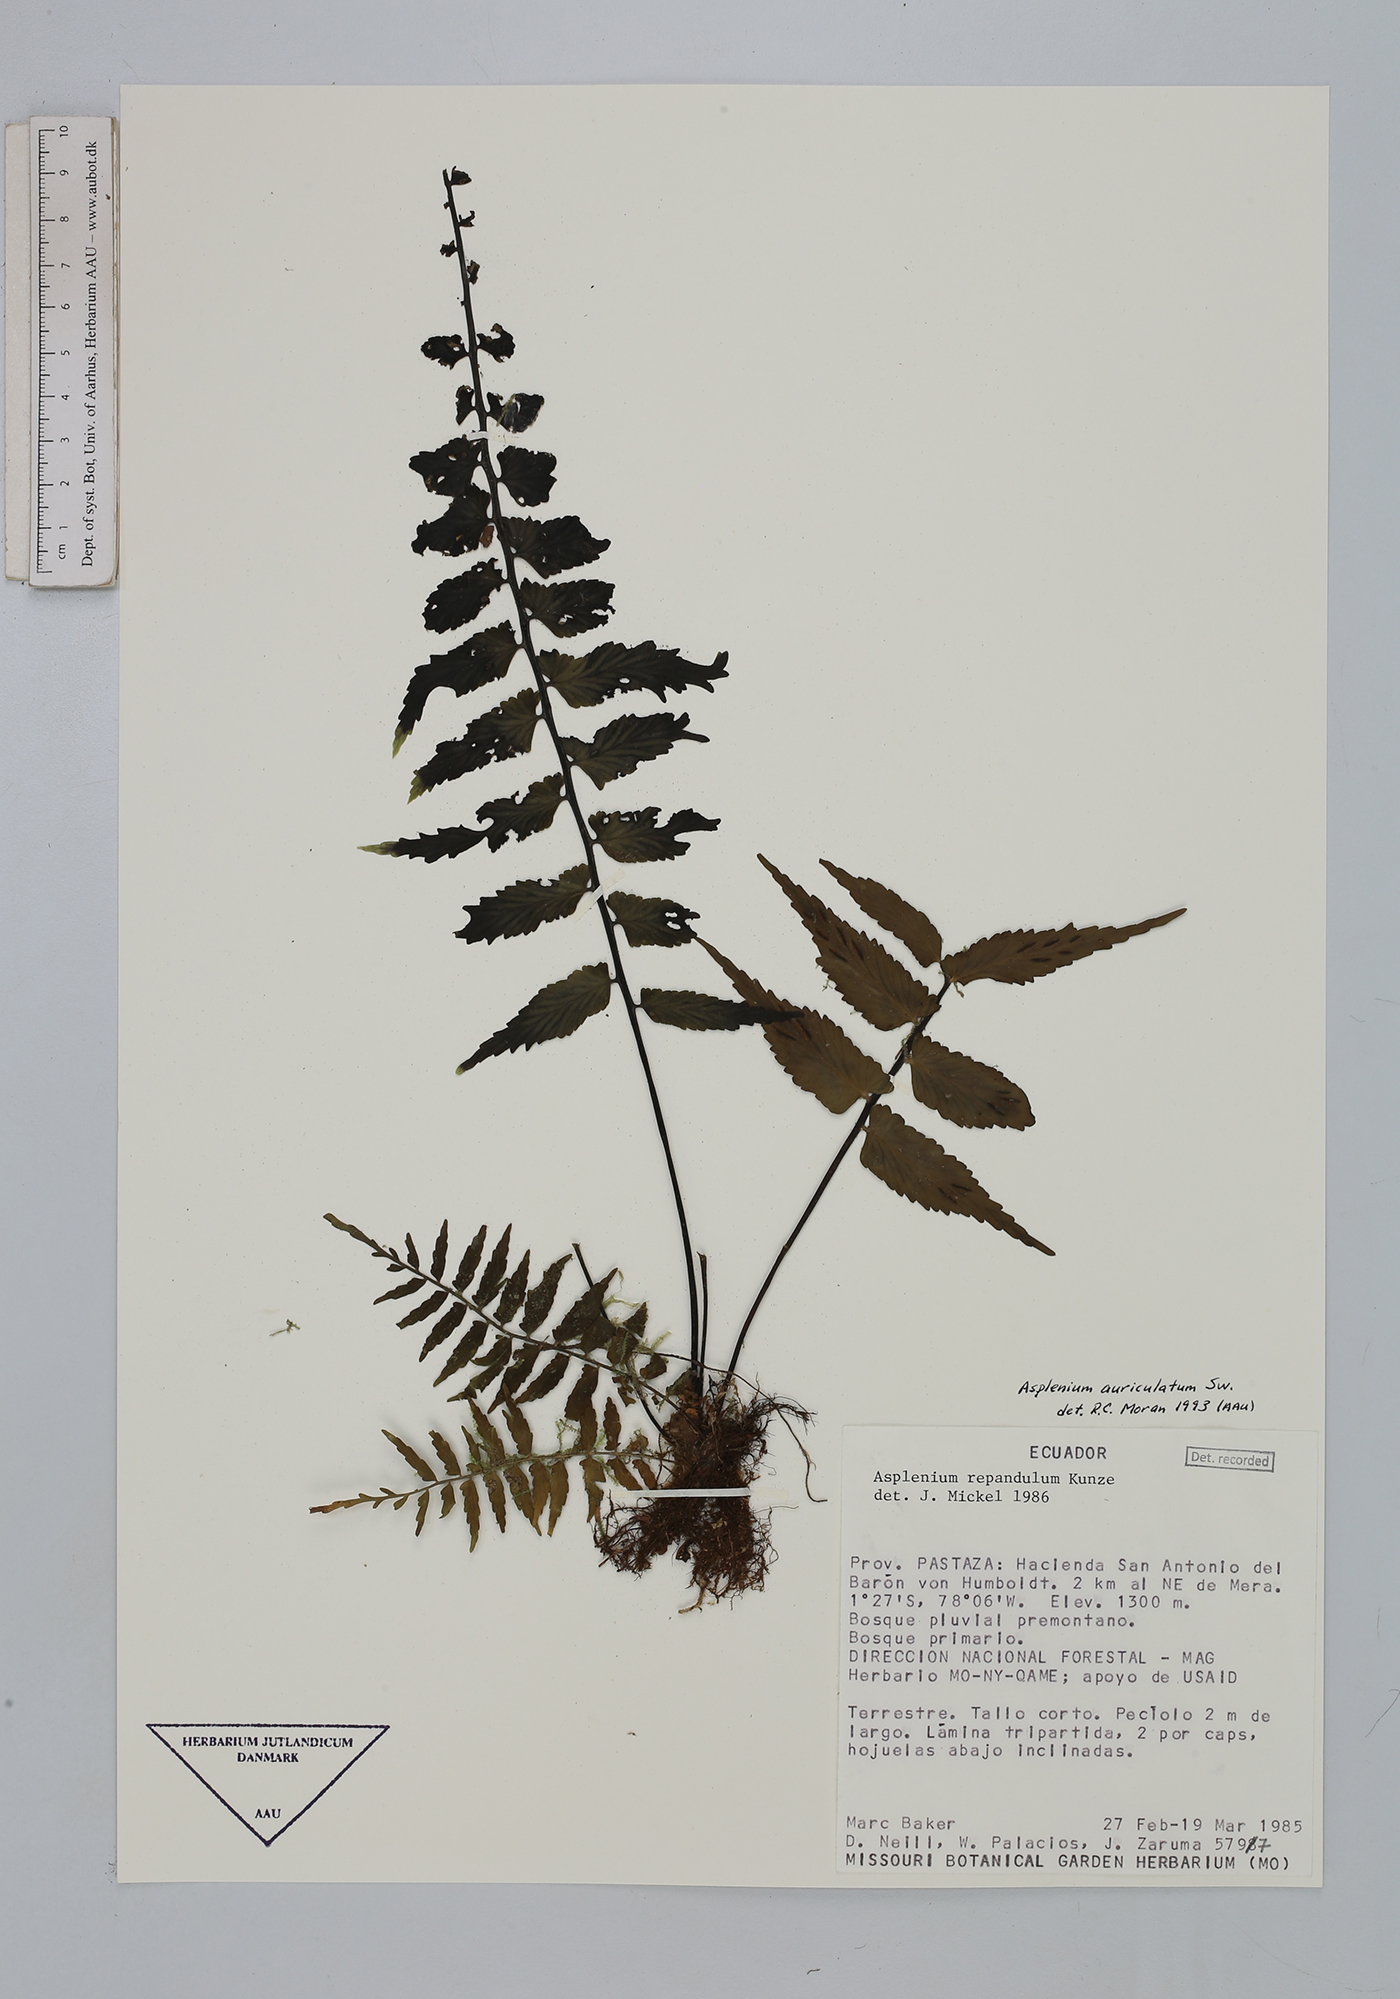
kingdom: Plantae
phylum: Tracheophyta
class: Polypodiopsida
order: Polypodiales
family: Aspleniaceae
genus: Asplenium
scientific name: Asplenium auriculatum
